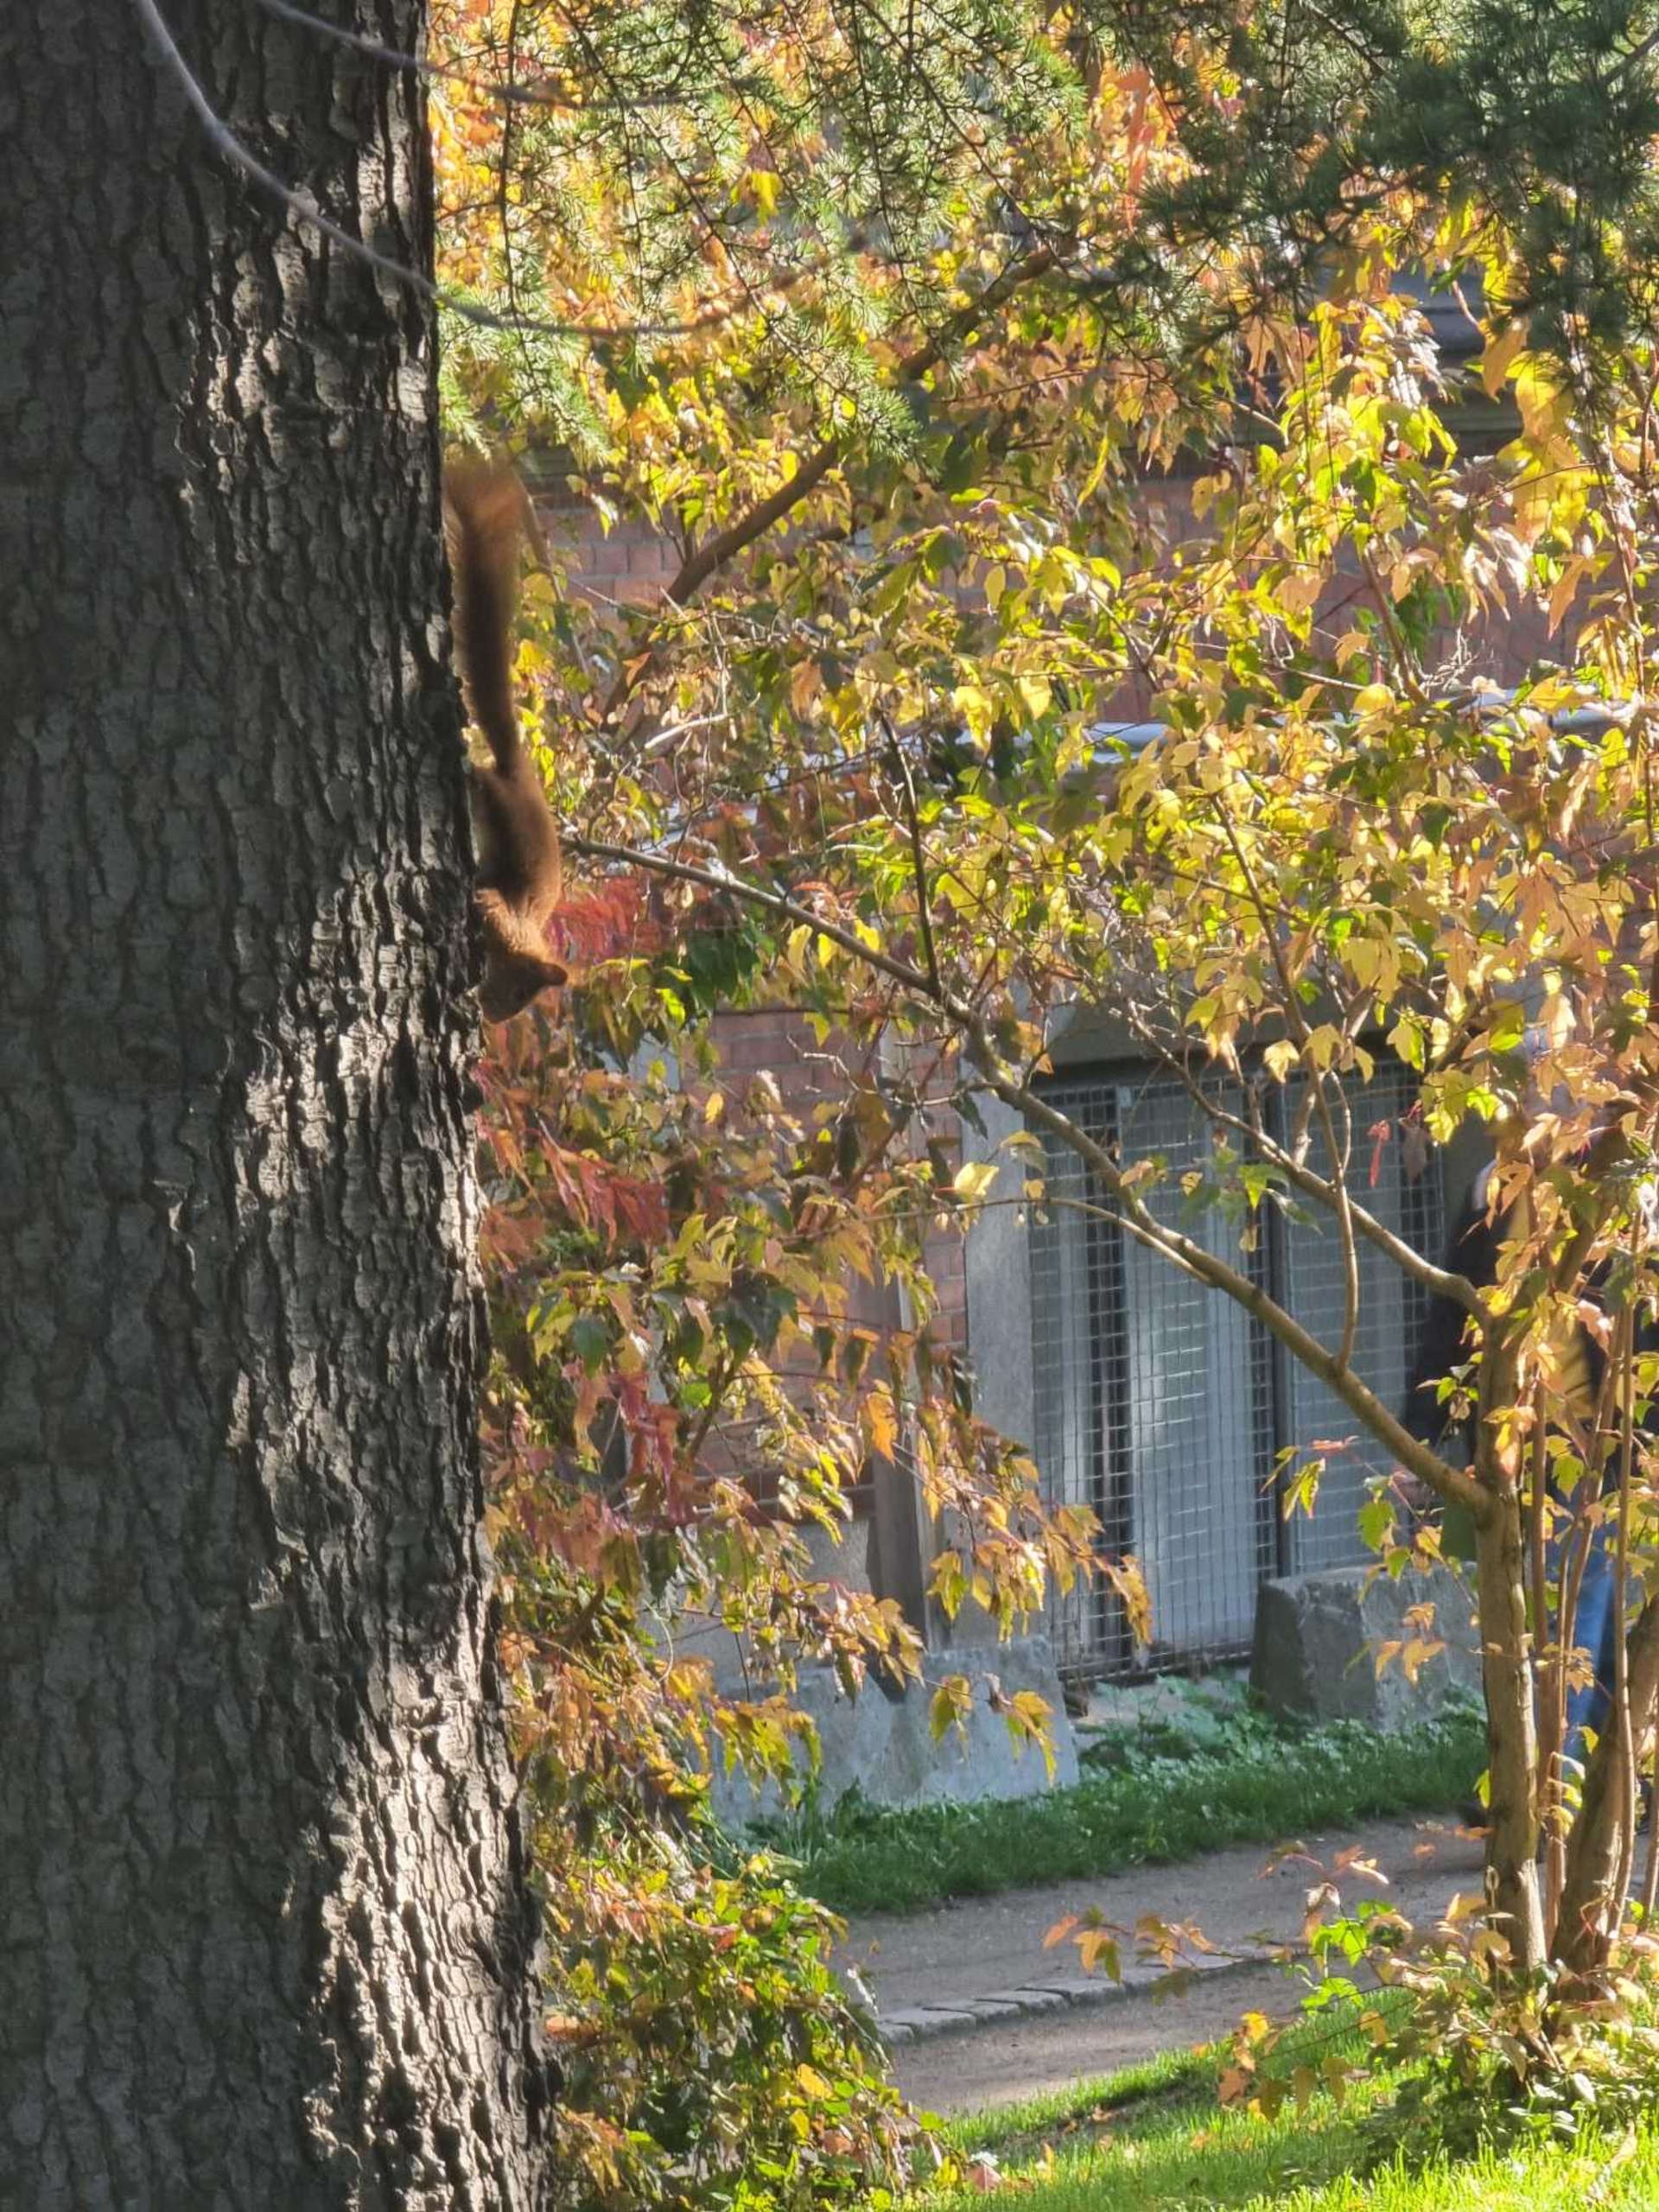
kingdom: Animalia
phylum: Chordata
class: Mammalia
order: Rodentia
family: Sciuridae
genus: Sciurus
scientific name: Sciurus vulgaris
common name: Egern
